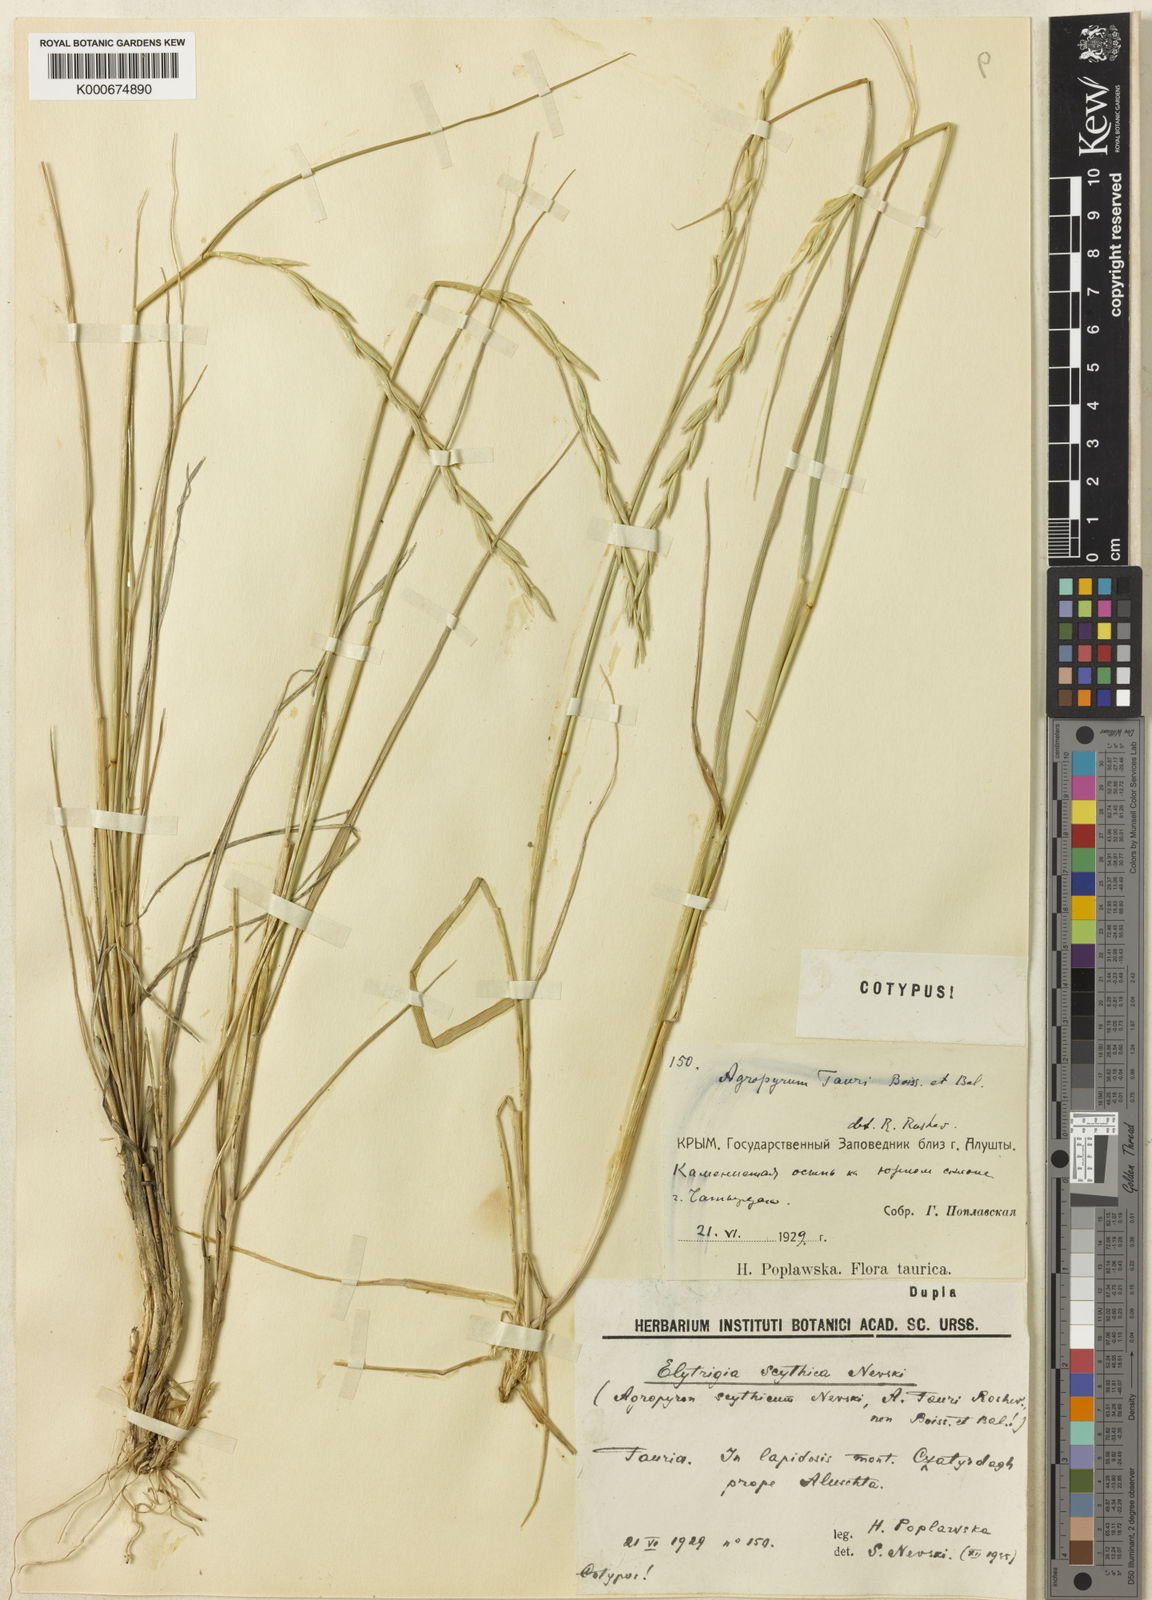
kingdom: Plantae
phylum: Tracheophyta
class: Liliopsida
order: Poales
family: Poaceae
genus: Pseudoroegneria
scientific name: Pseudoroegneria geniculata
